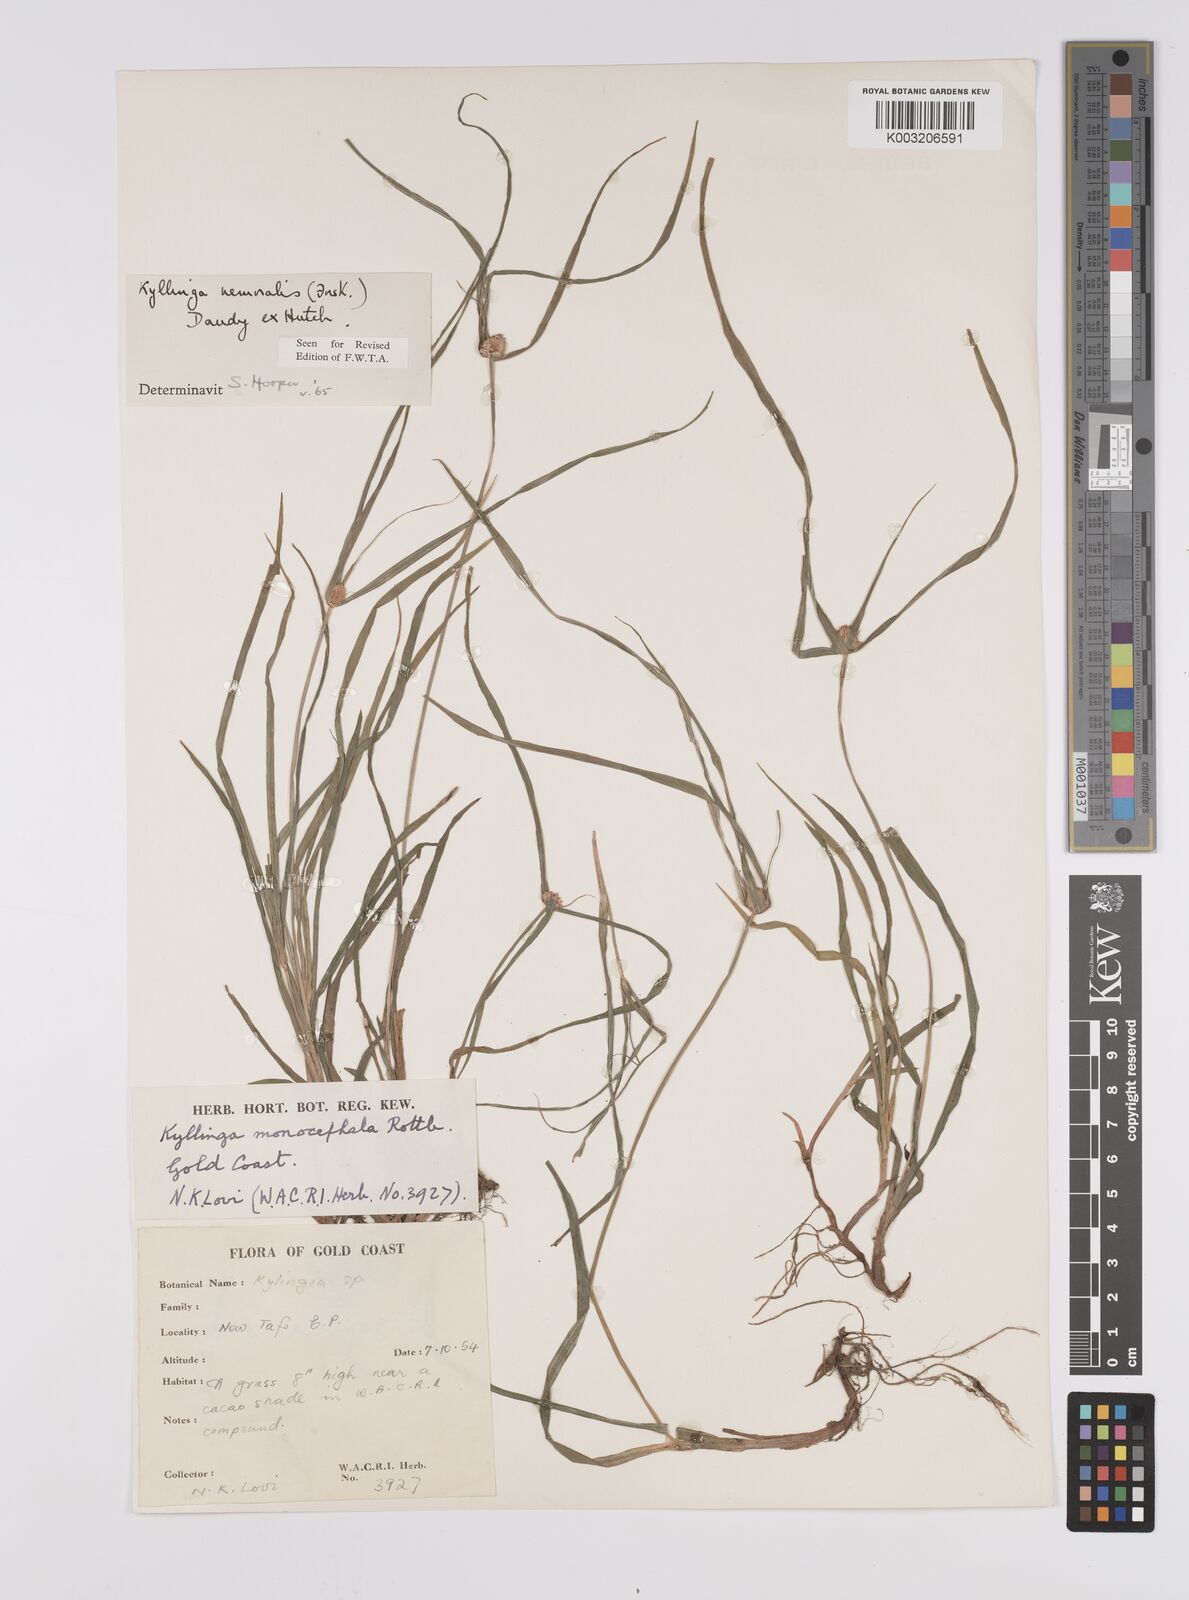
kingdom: Plantae
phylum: Tracheophyta
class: Liliopsida
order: Poales
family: Cyperaceae
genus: Cyperus
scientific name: Cyperus nemoralis
